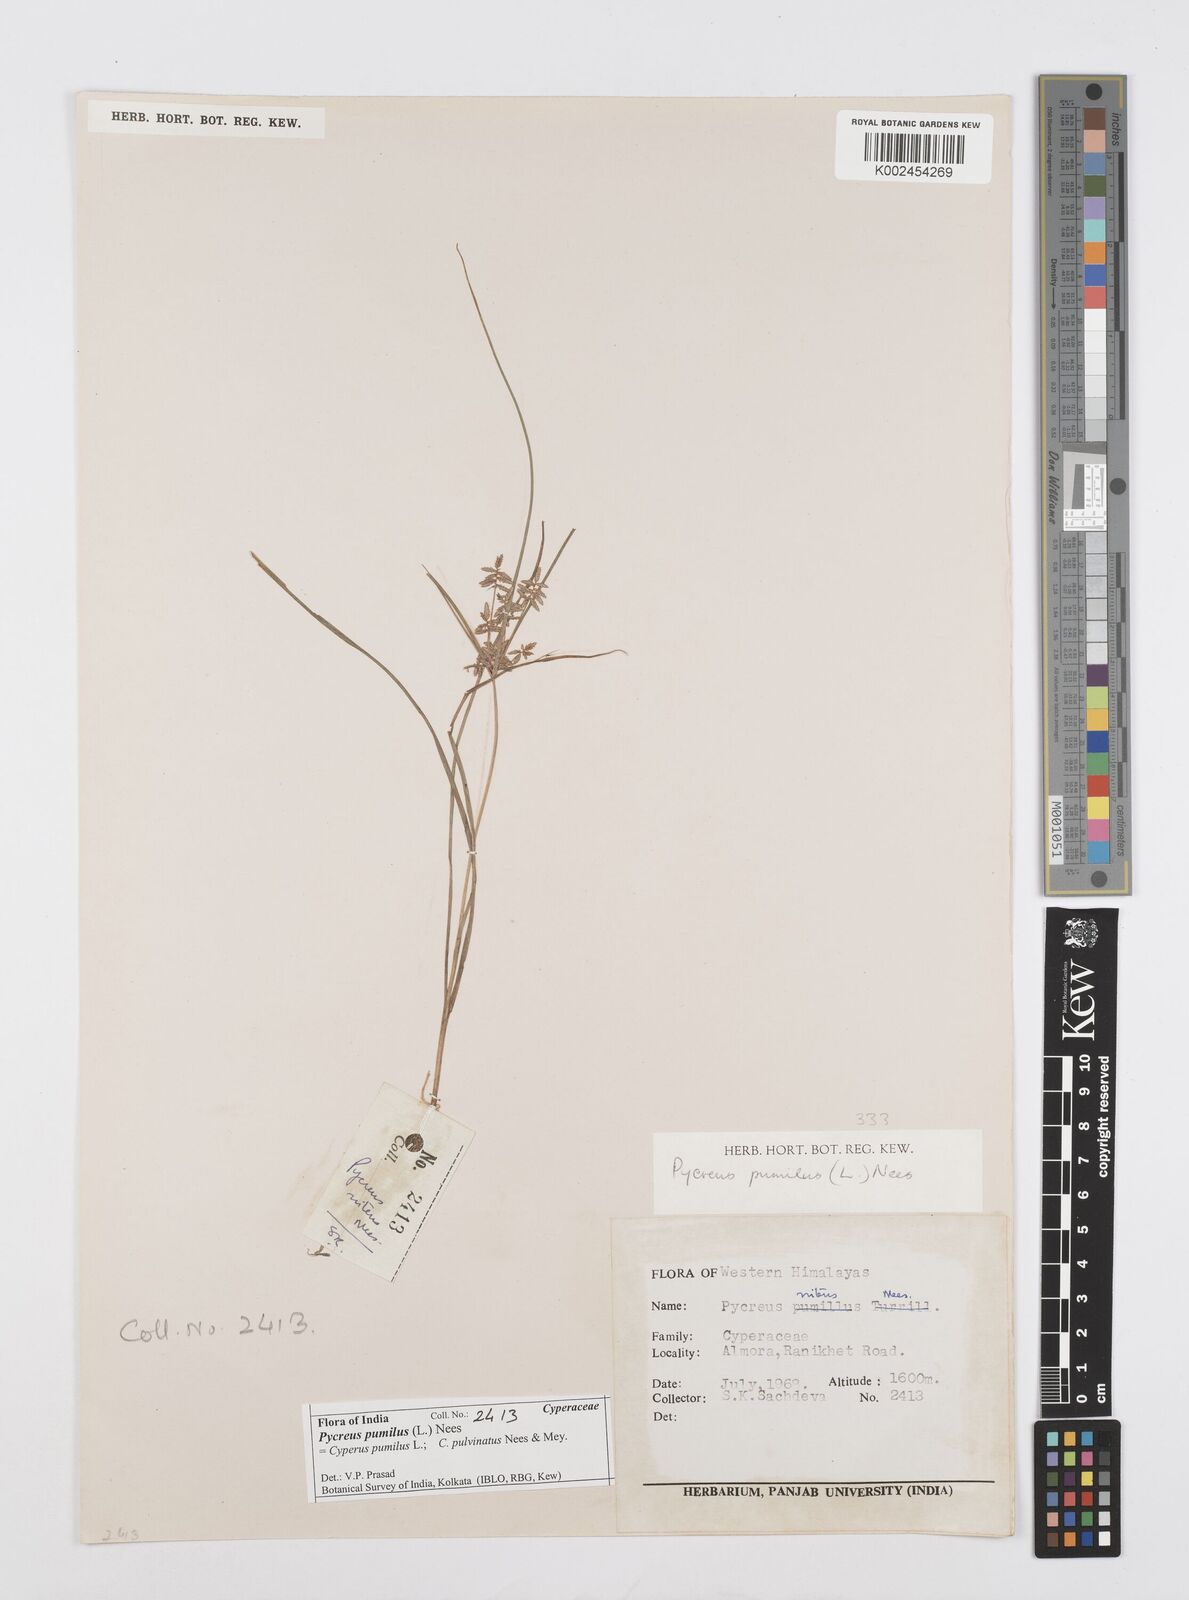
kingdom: Plantae
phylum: Tracheophyta
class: Liliopsida
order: Poales
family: Cyperaceae
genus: Cyperus
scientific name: Cyperus pumilus
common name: Low flatsedge
